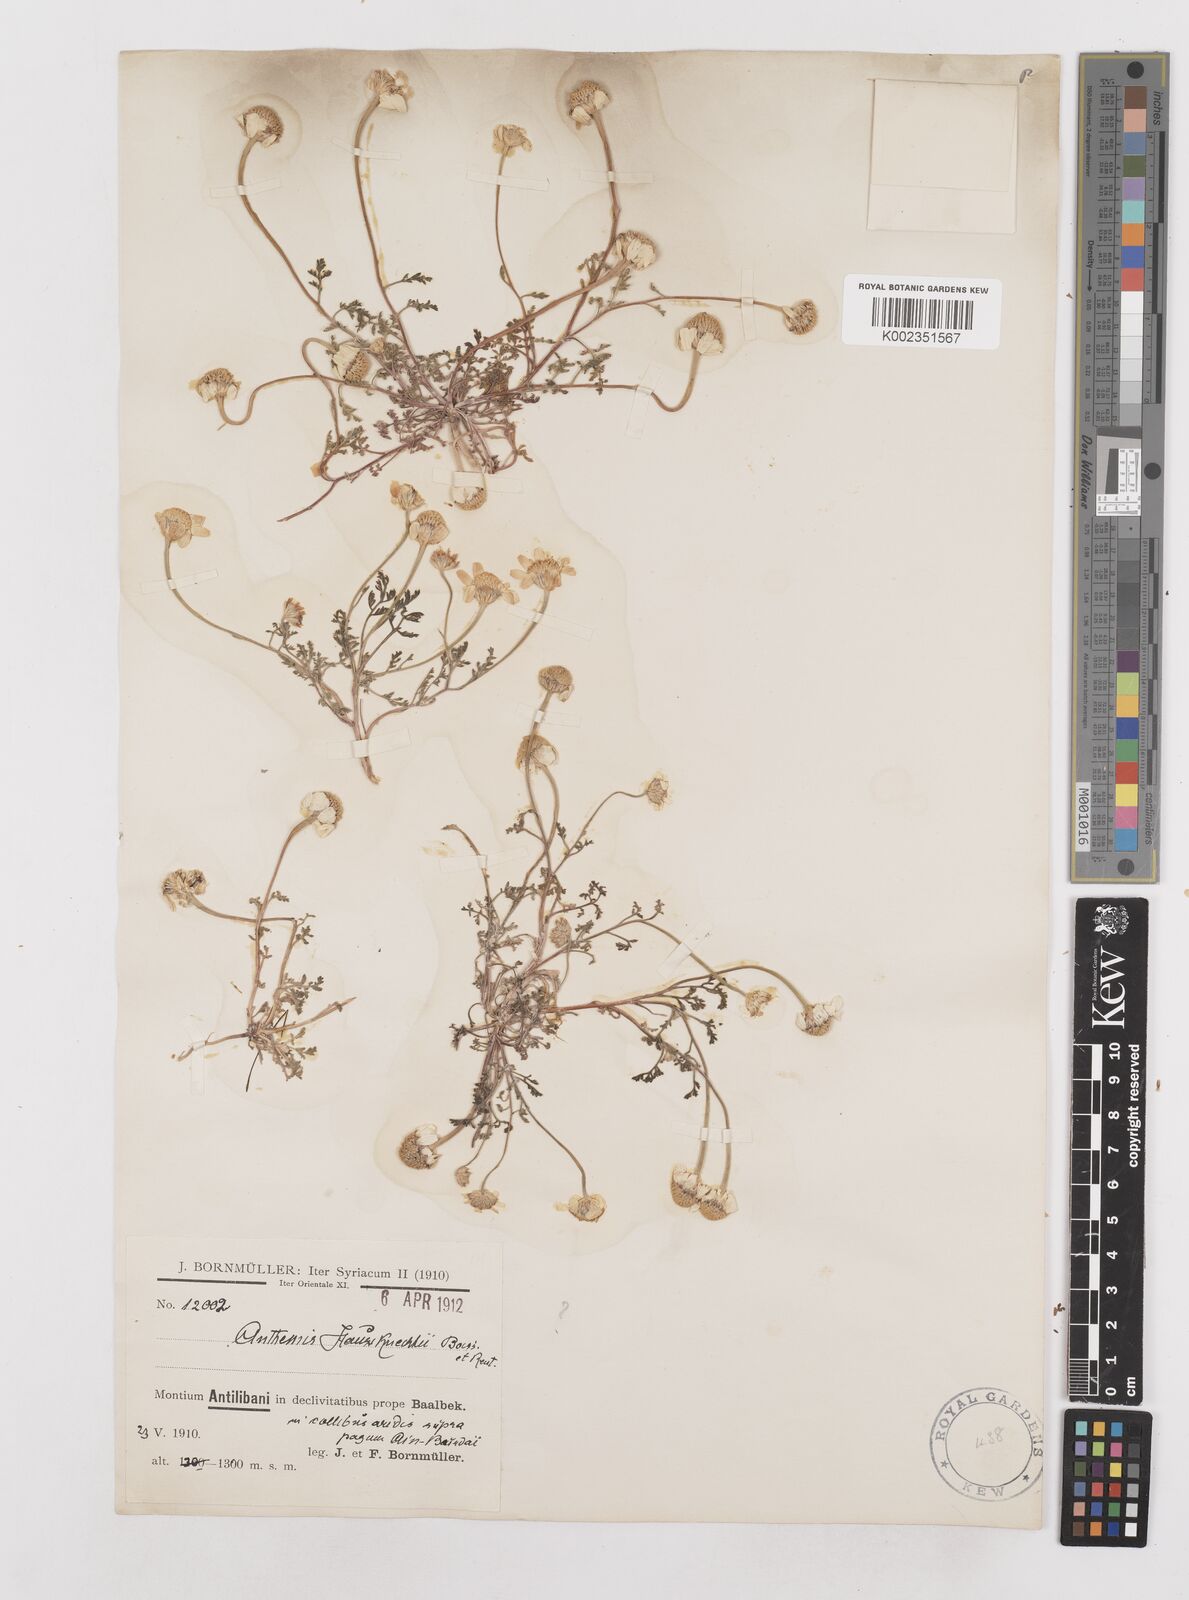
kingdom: Plantae
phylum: Tracheophyta
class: Magnoliopsida
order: Asterales
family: Asteraceae
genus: Anthemis
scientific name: Anthemis haussknechtii
